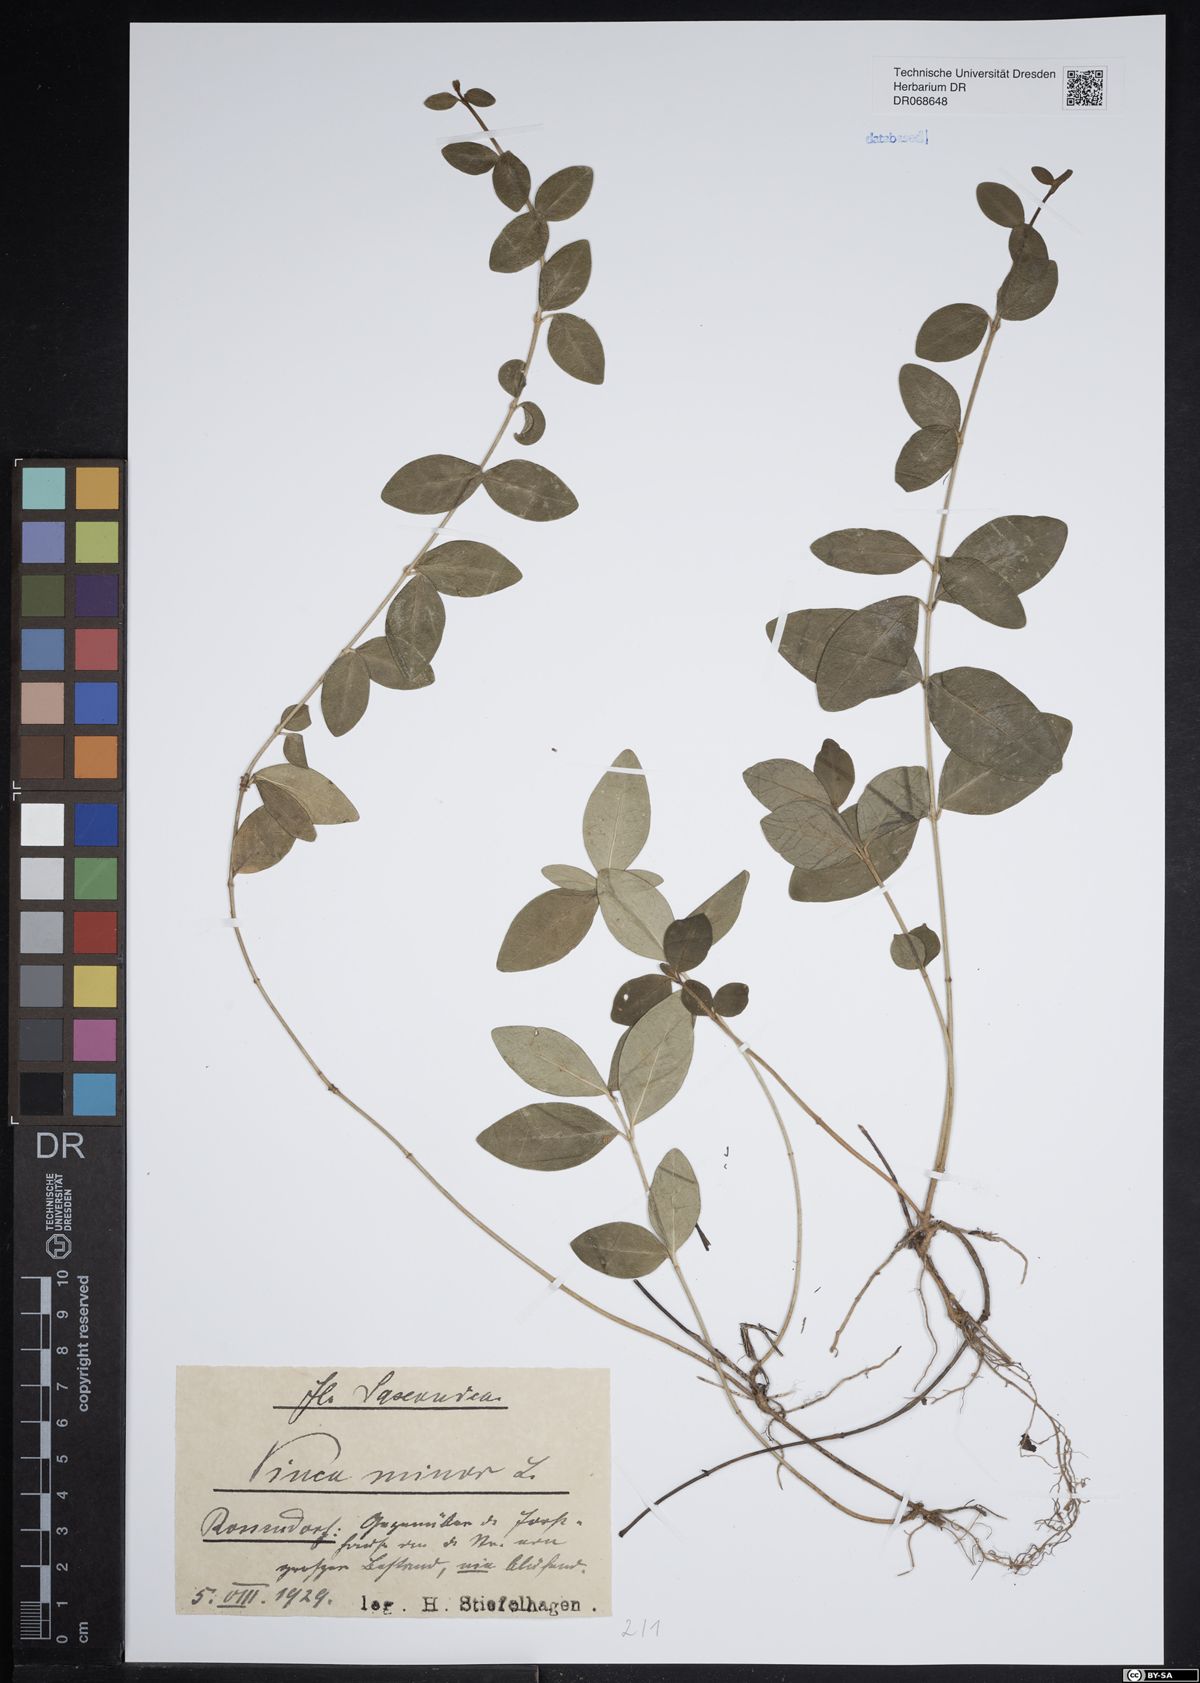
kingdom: Plantae
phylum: Tracheophyta
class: Magnoliopsida
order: Gentianales
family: Apocynaceae
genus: Vinca
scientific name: Vinca minor
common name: Lesser periwinkle
